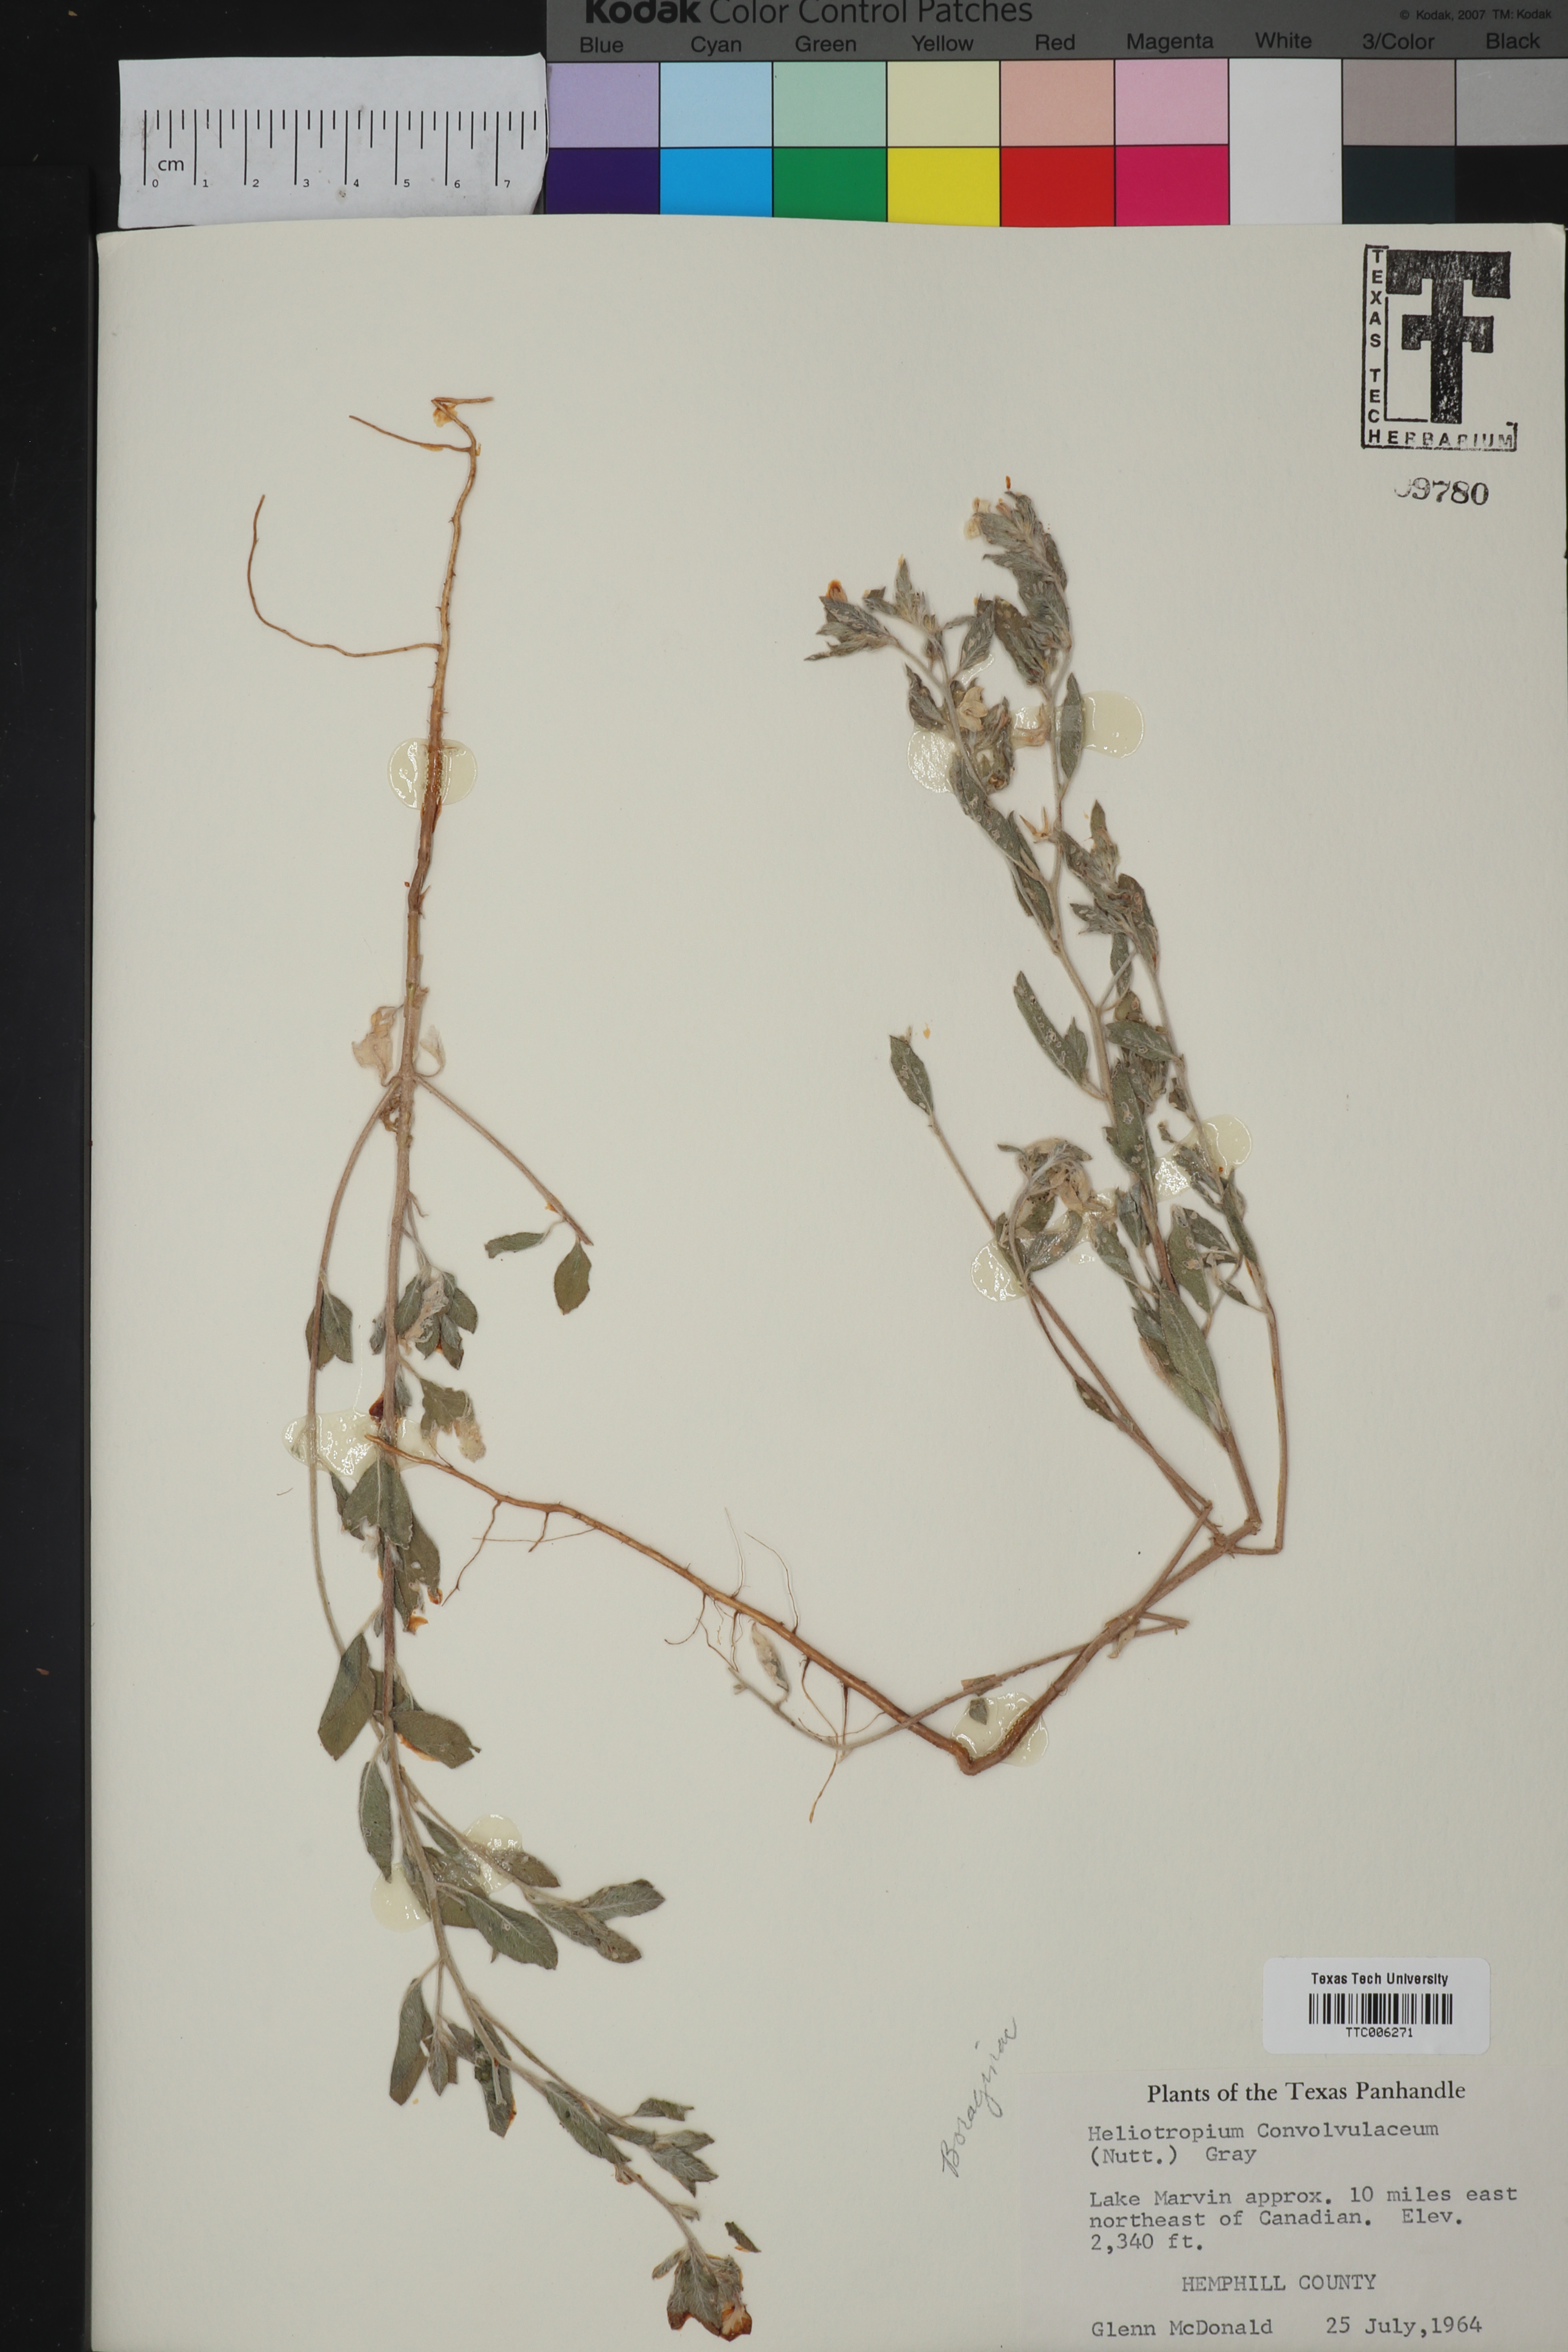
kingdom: Plantae
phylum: Tracheophyta
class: Magnoliopsida
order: Boraginales
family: Heliotropiaceae
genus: Euploca
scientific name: Euploca convolvulacea
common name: Bindweed heliotrope
